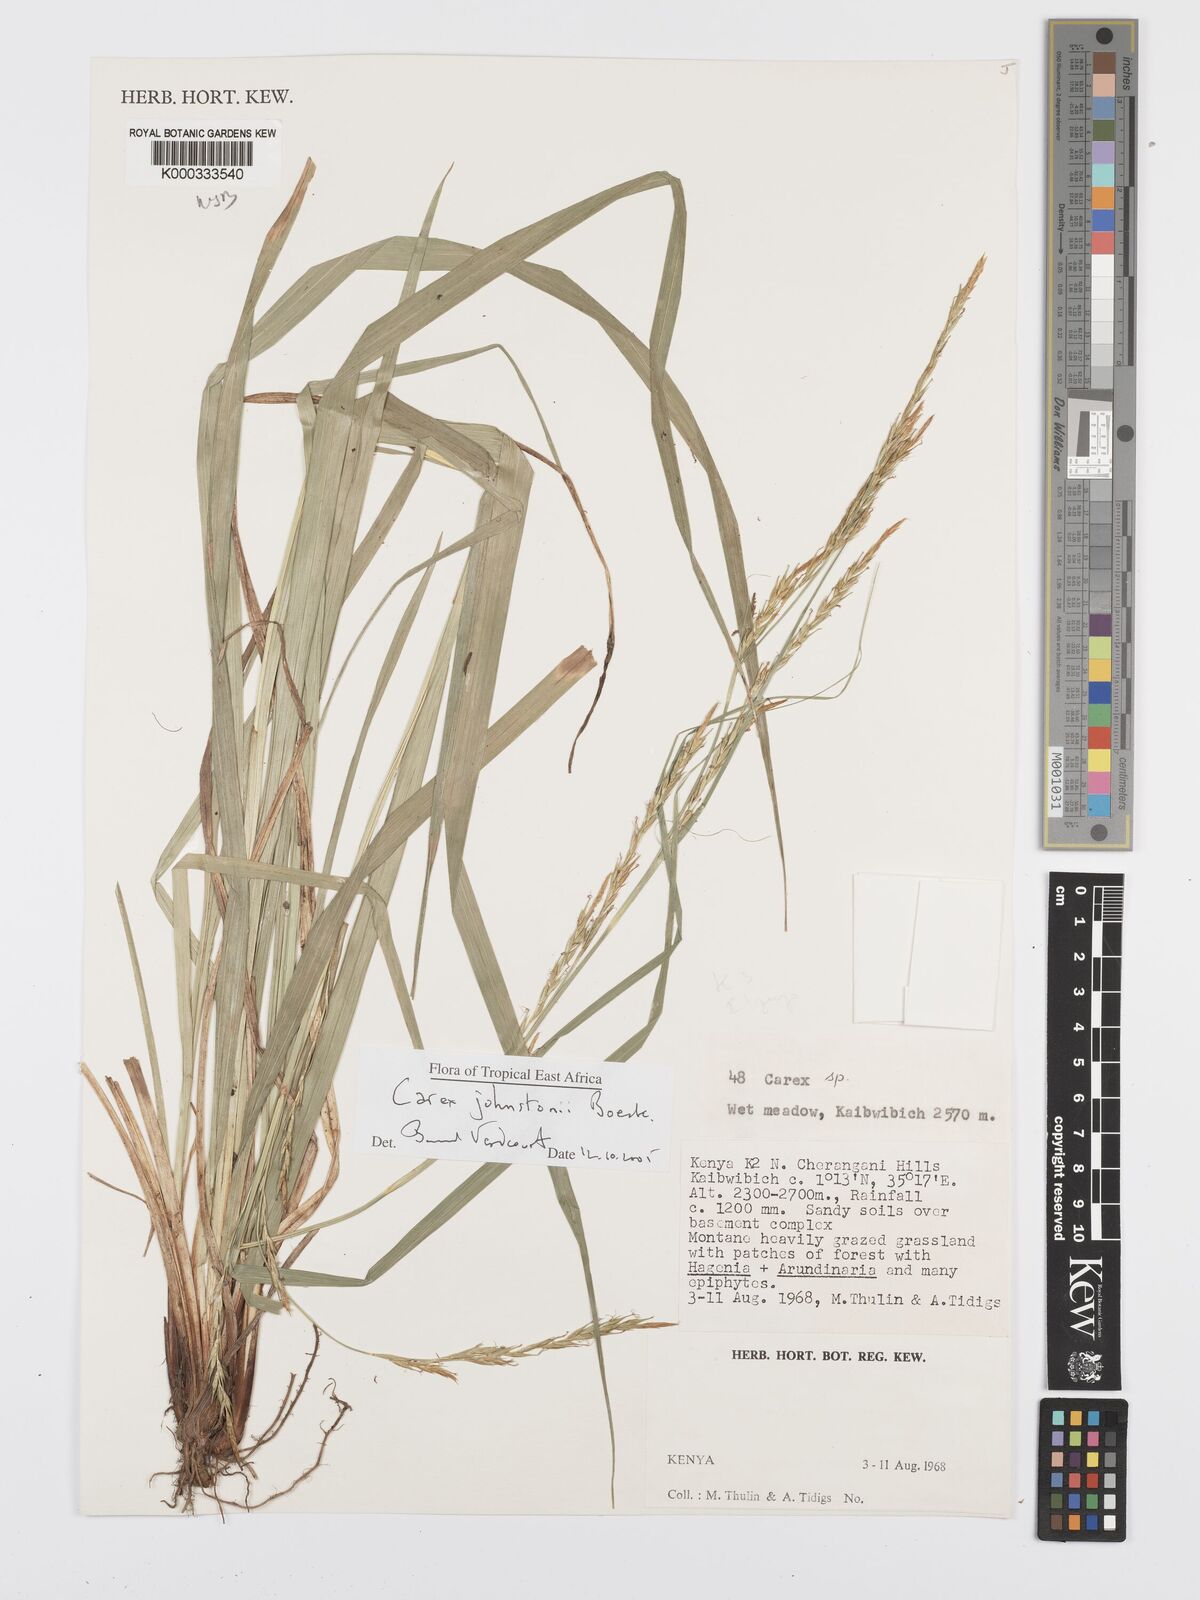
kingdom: Plantae
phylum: Tracheophyta
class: Liliopsida
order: Poales
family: Cyperaceae
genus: Carex
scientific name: Carex johnstonii
